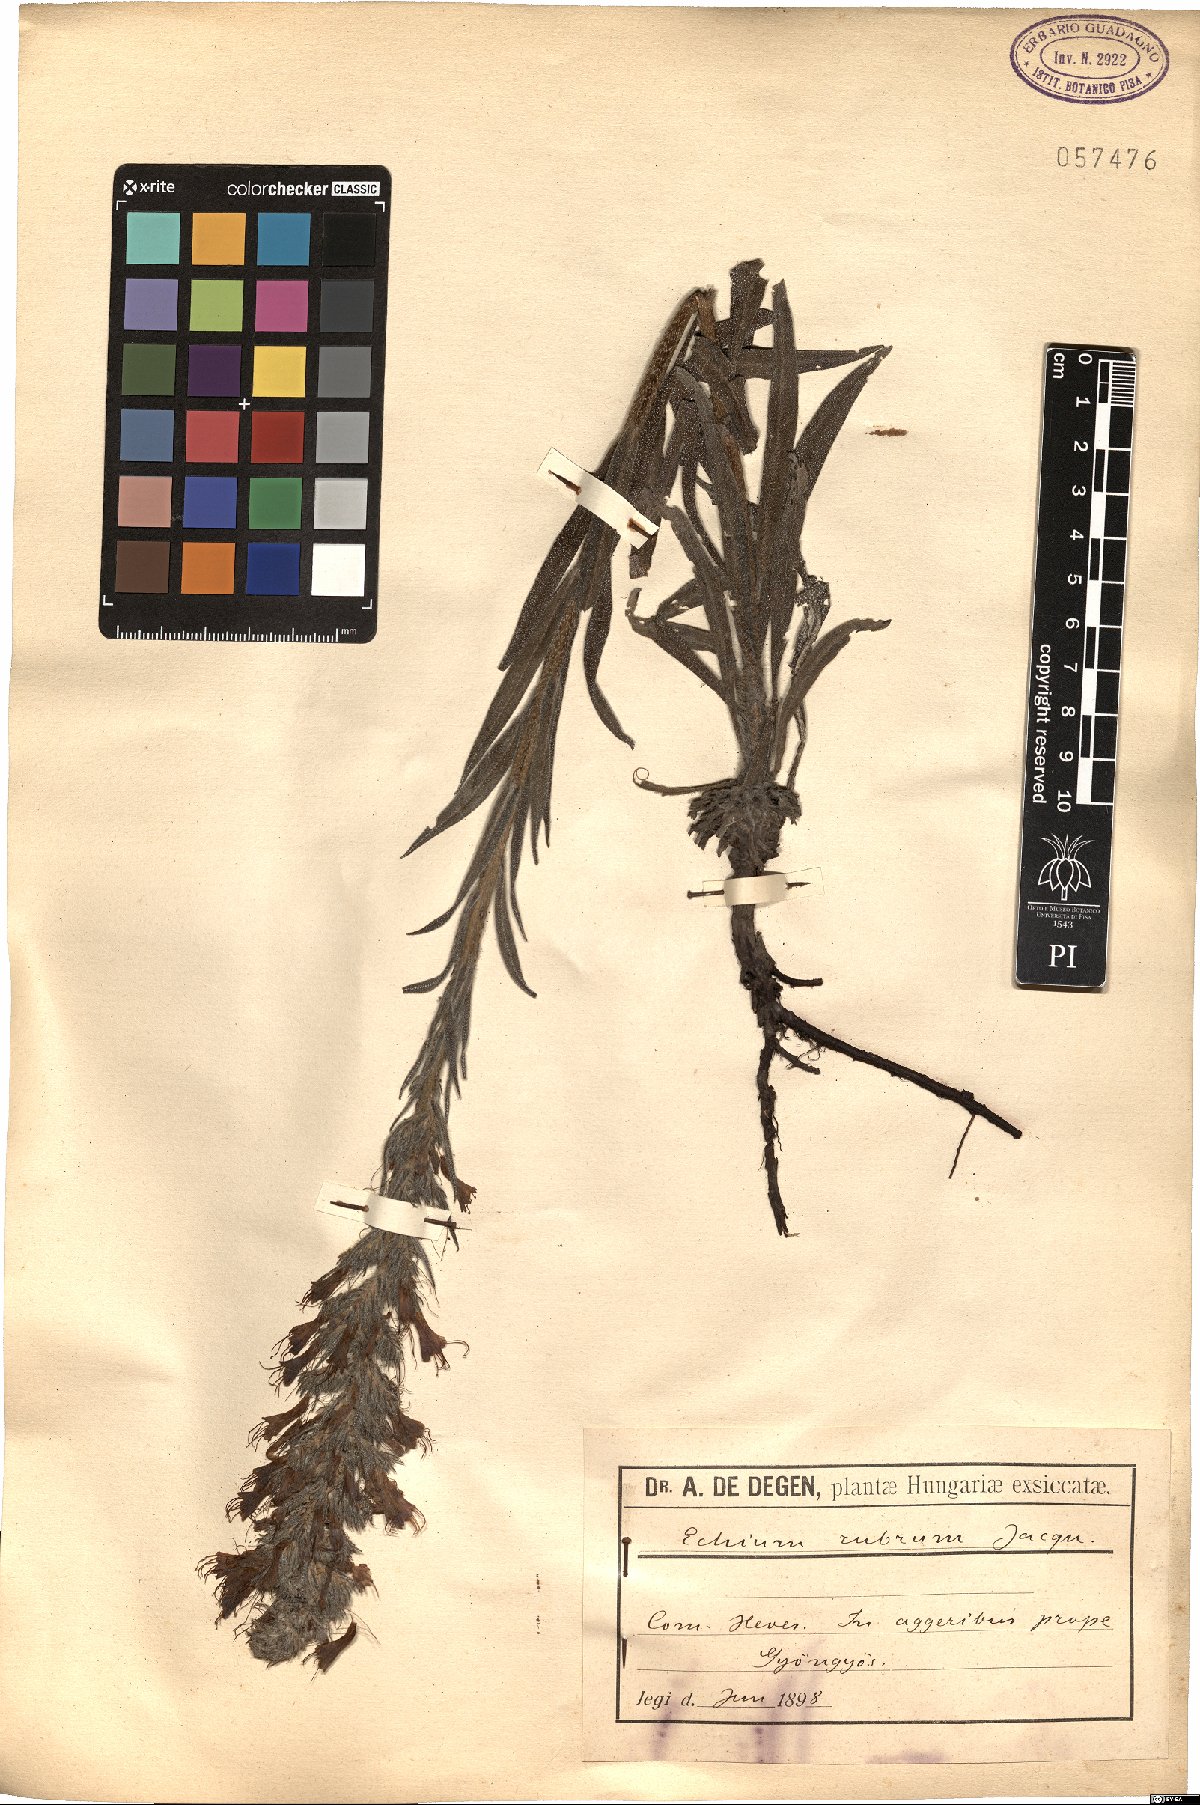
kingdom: Plantae
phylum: Tracheophyta
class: Magnoliopsida
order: Boraginales
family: Boraginaceae
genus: Pontechium
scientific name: Pontechium maculatum
